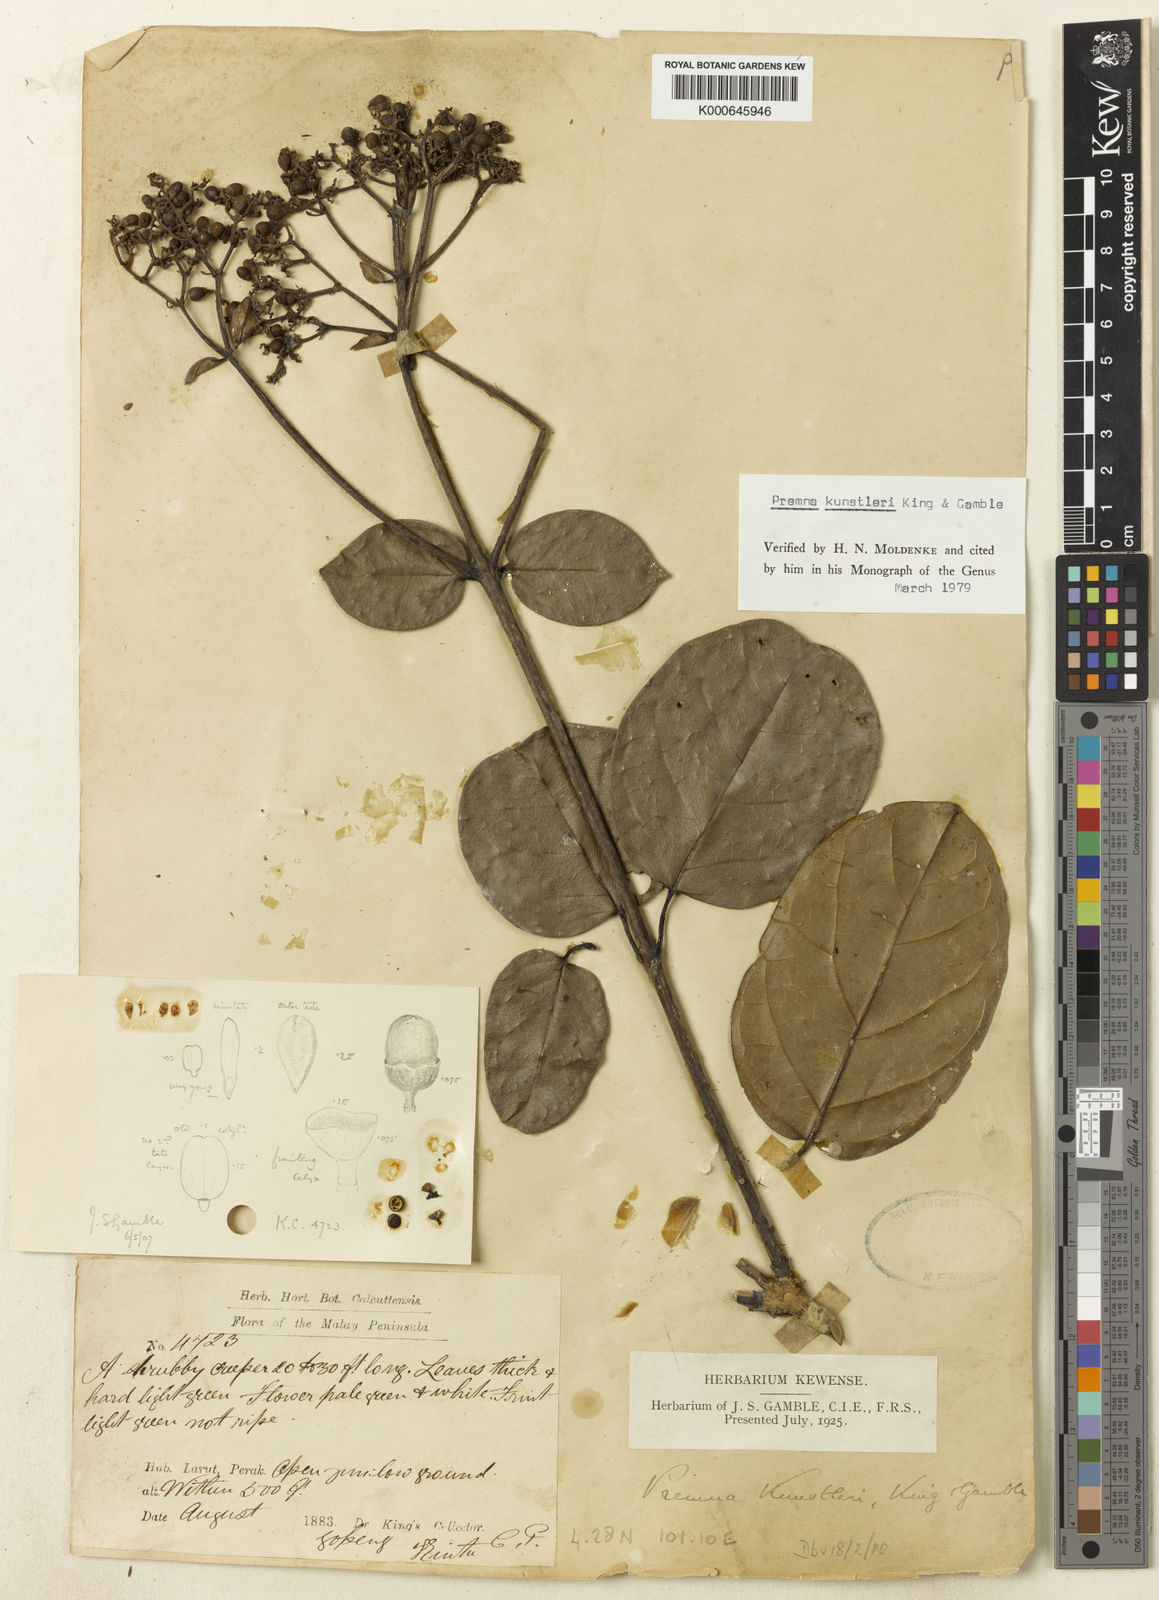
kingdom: Plantae
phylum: Tracheophyta
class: Magnoliopsida
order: Lamiales
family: Lamiaceae
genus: Premna
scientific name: Premna serratifolia
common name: Bastard guelder
